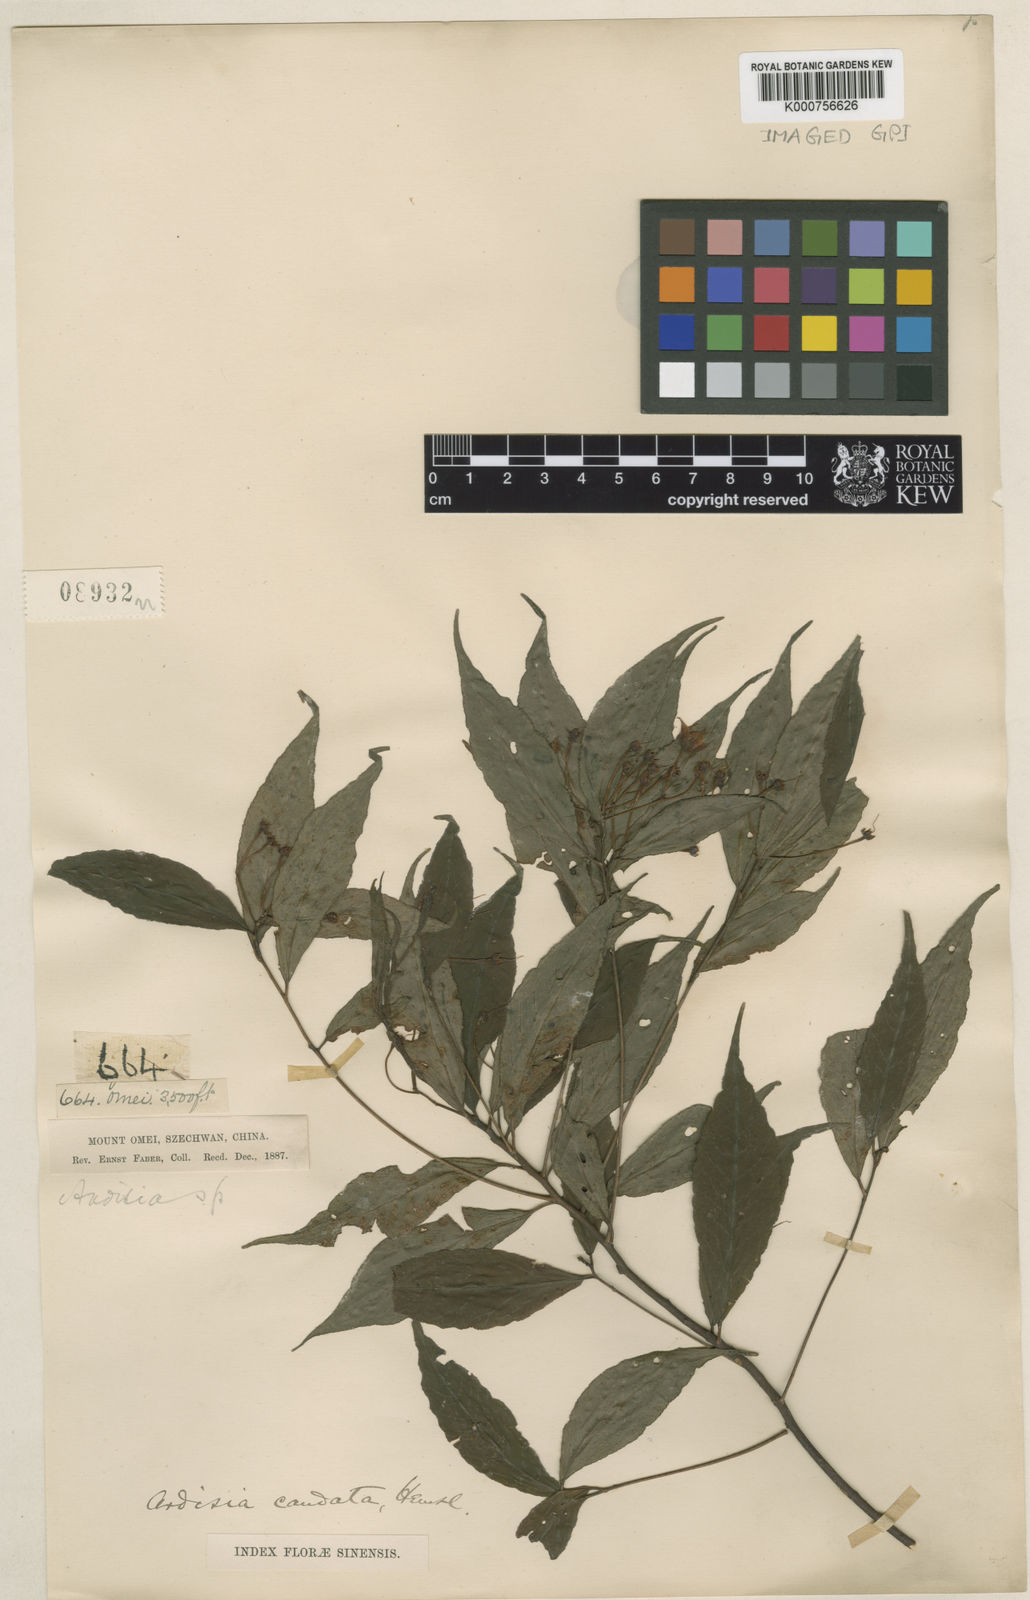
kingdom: Plantae
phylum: Tracheophyta
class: Magnoliopsida
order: Ericales
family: Primulaceae
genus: Ardisia
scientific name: Ardisia caudata
